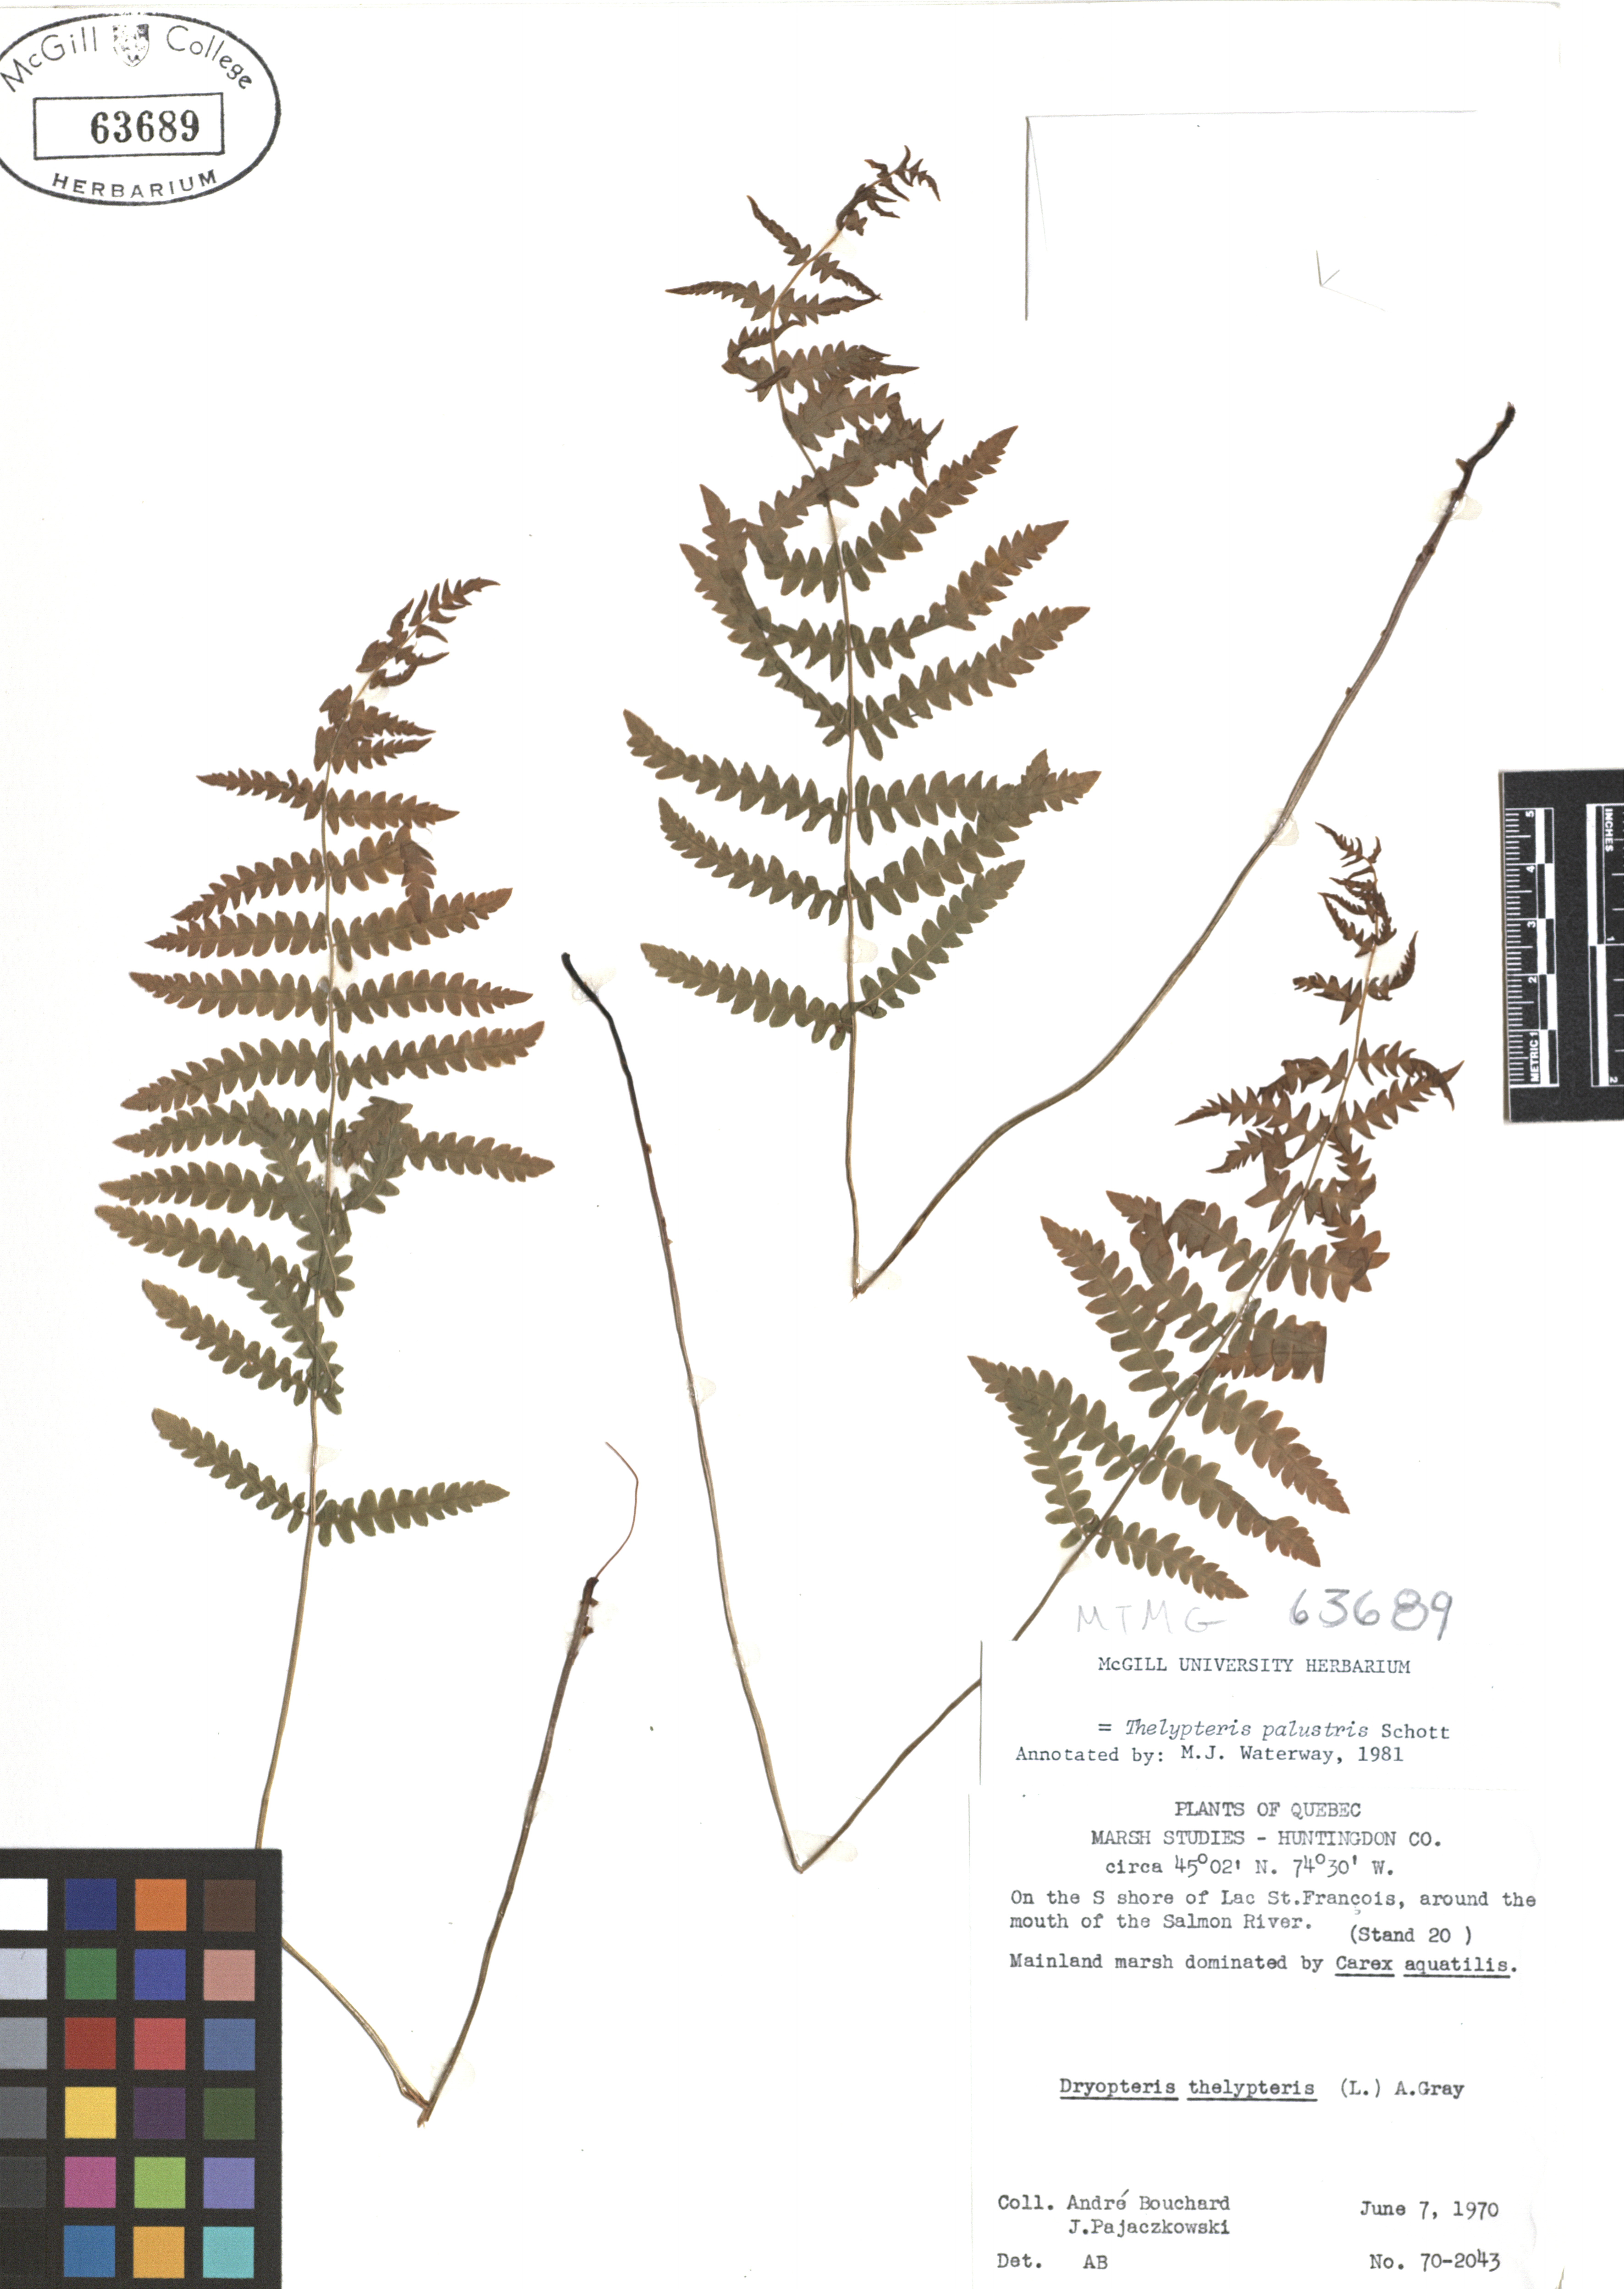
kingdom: Plantae
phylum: Tracheophyta
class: Polypodiopsida
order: Polypodiales
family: Thelypteridaceae
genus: Thelypteris
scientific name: Thelypteris palustris
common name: Marsh fern
